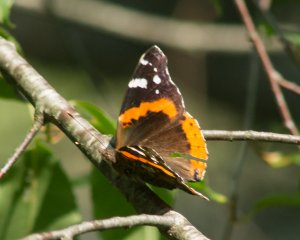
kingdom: Animalia
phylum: Arthropoda
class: Insecta
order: Lepidoptera
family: Nymphalidae
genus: Vanessa
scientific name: Vanessa atalanta
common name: Red Admiral
